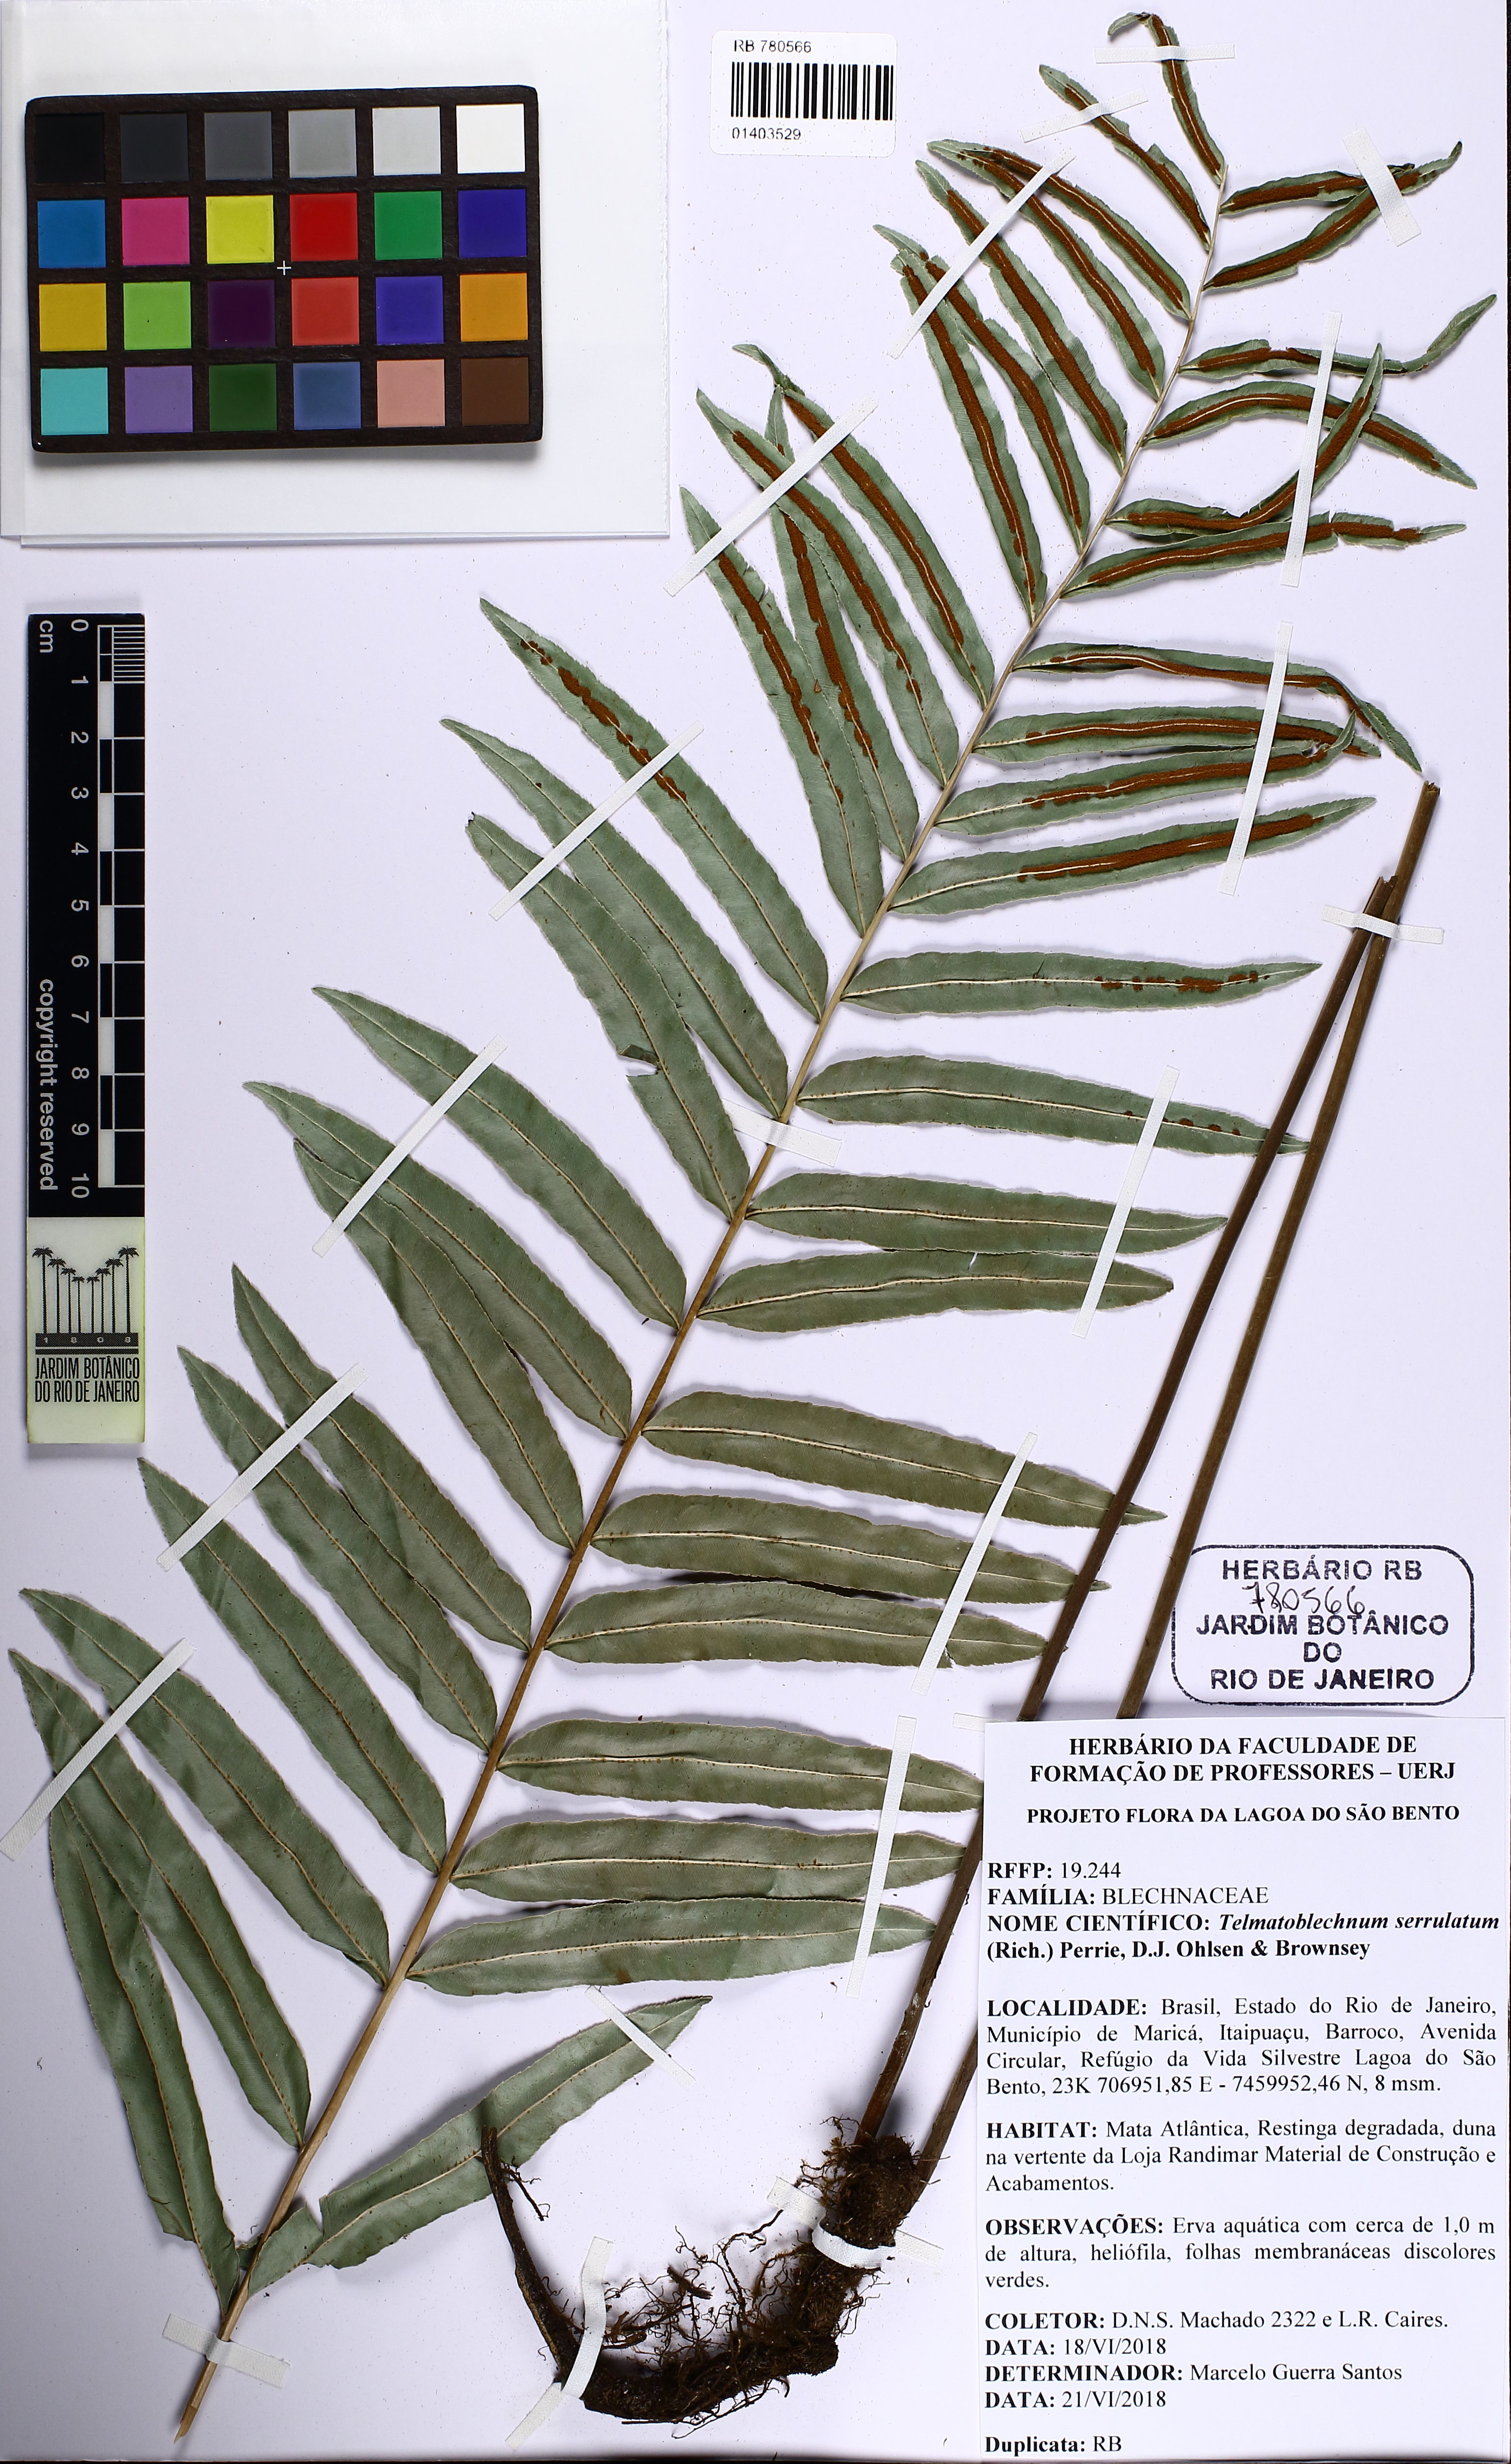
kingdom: Plantae
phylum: Tracheophyta
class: Polypodiopsida
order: Polypodiales
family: Blechnaceae
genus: Telmatoblechnum
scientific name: Telmatoblechnum serrulatum
